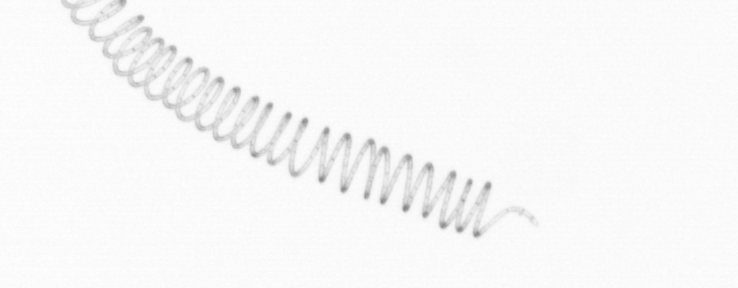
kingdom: Chromista
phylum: Ochrophyta
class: Bacillariophyceae
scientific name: Bacillariophyceae
